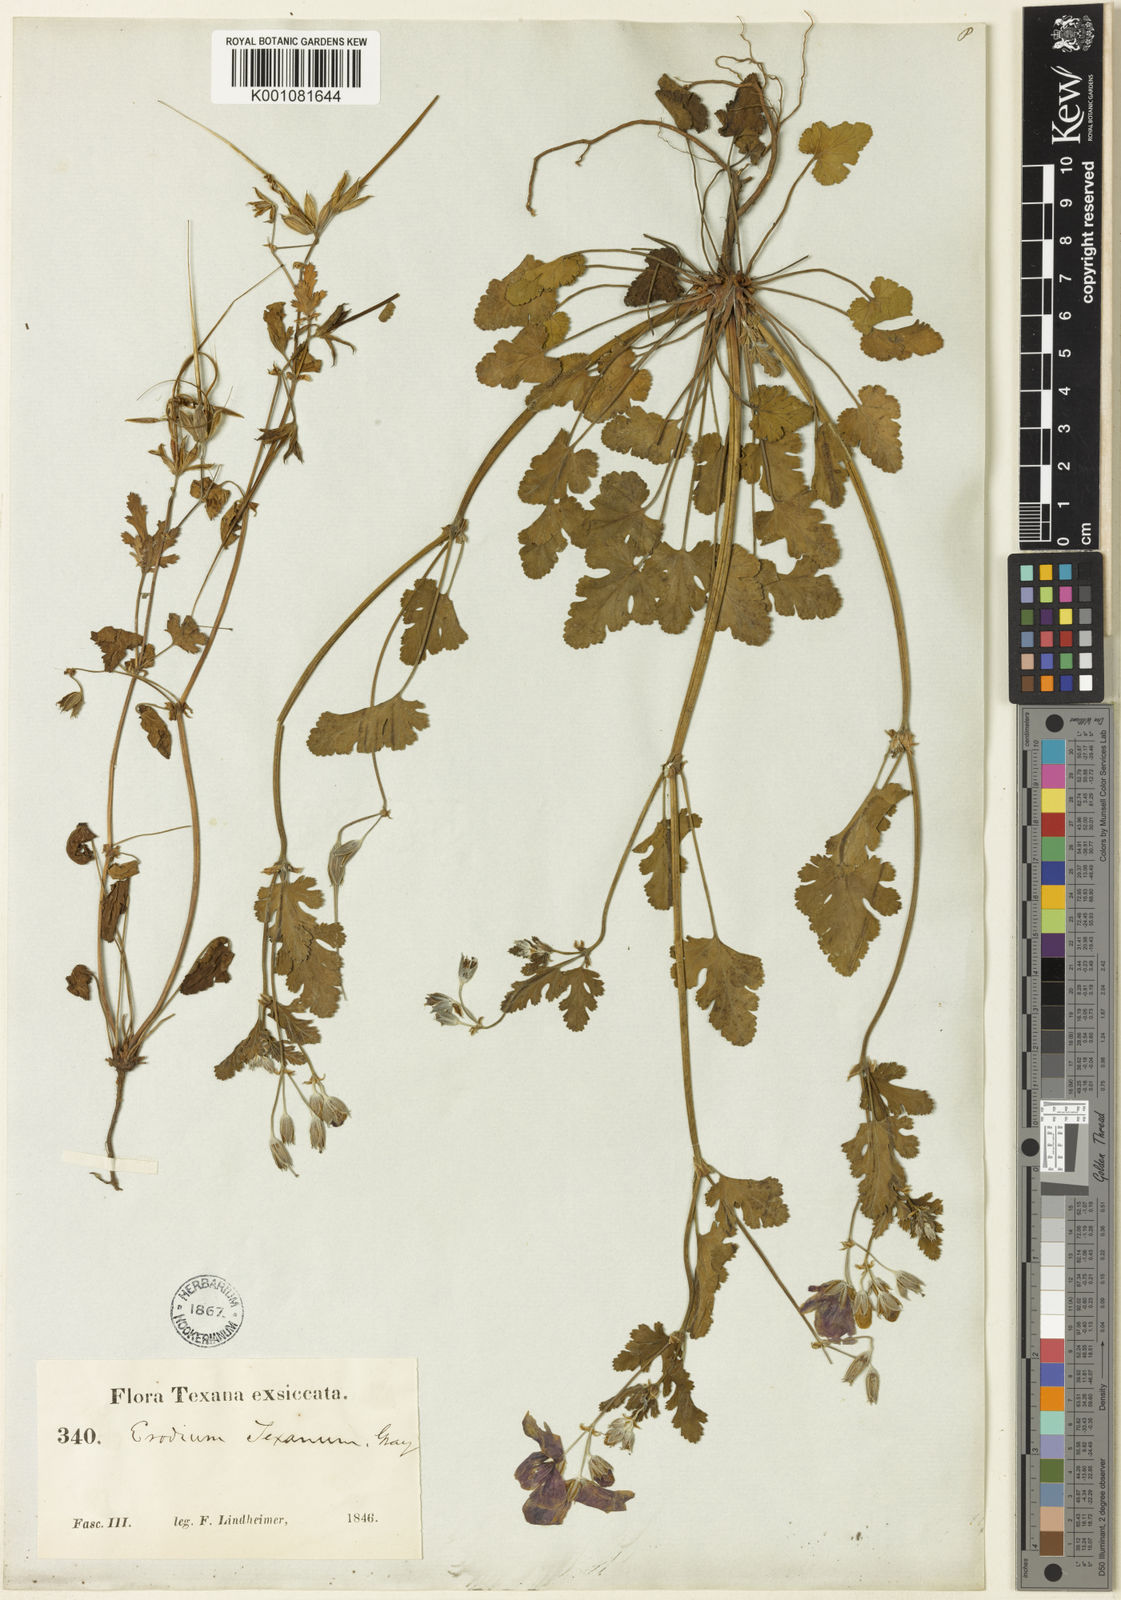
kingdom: Plantae
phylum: Tracheophyta
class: Magnoliopsida
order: Geraniales
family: Geraniaceae
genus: Erodium
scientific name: Erodium texanum
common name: Texas stork's-bill
